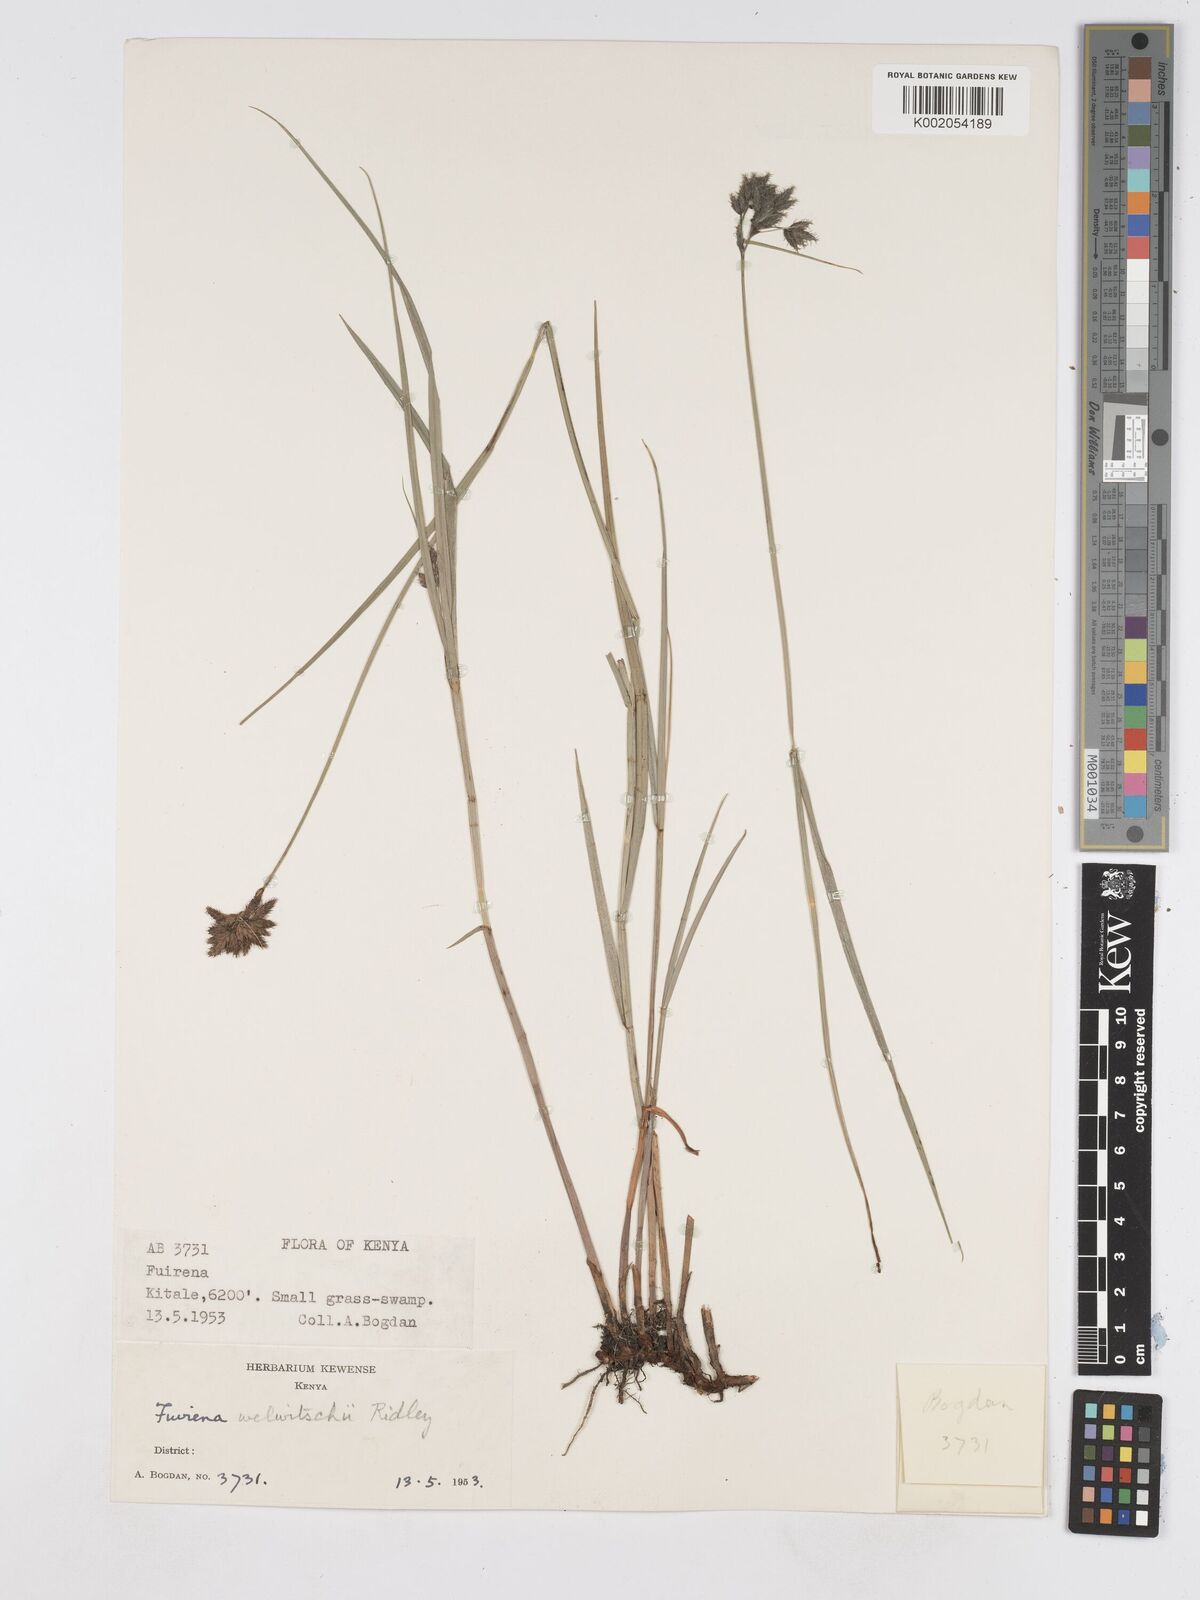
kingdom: Plantae
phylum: Tracheophyta
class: Liliopsida
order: Poales
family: Cyperaceae
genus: Fuirena
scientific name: Fuirena welwitschii
